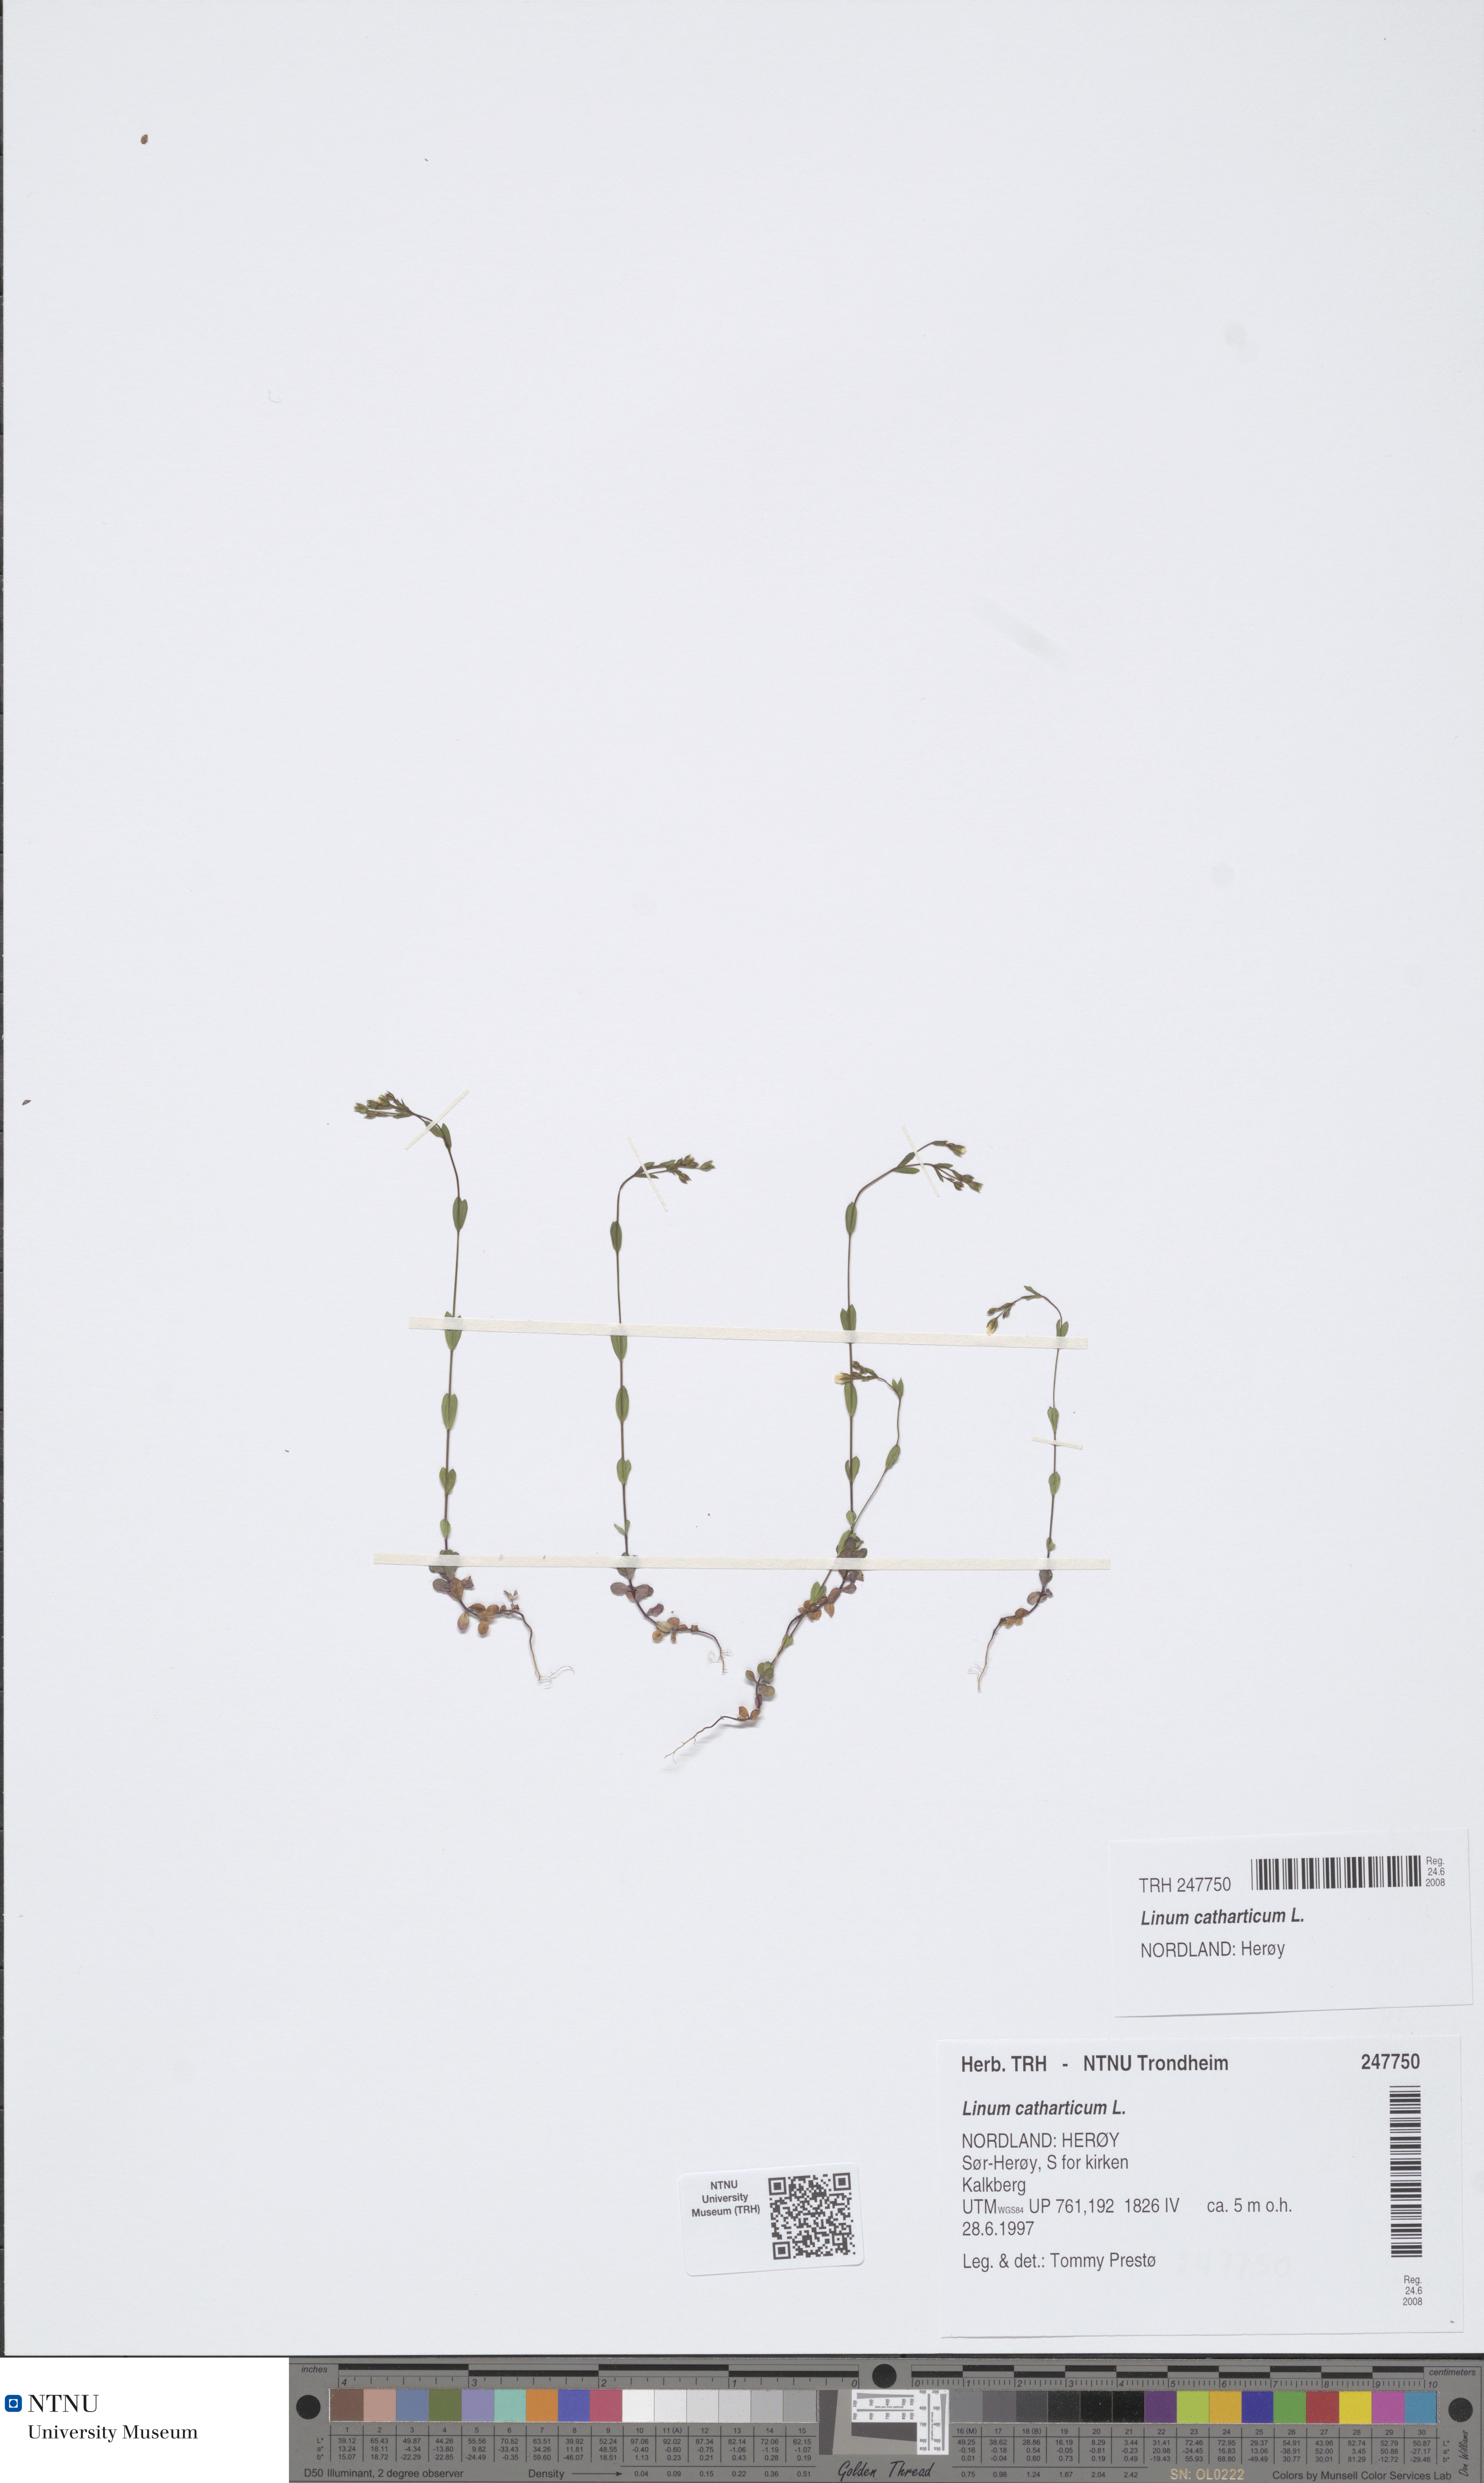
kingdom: Plantae
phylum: Tracheophyta
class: Magnoliopsida
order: Malpighiales
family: Linaceae
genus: Linum
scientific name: Linum catharticum
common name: Fairy flax
